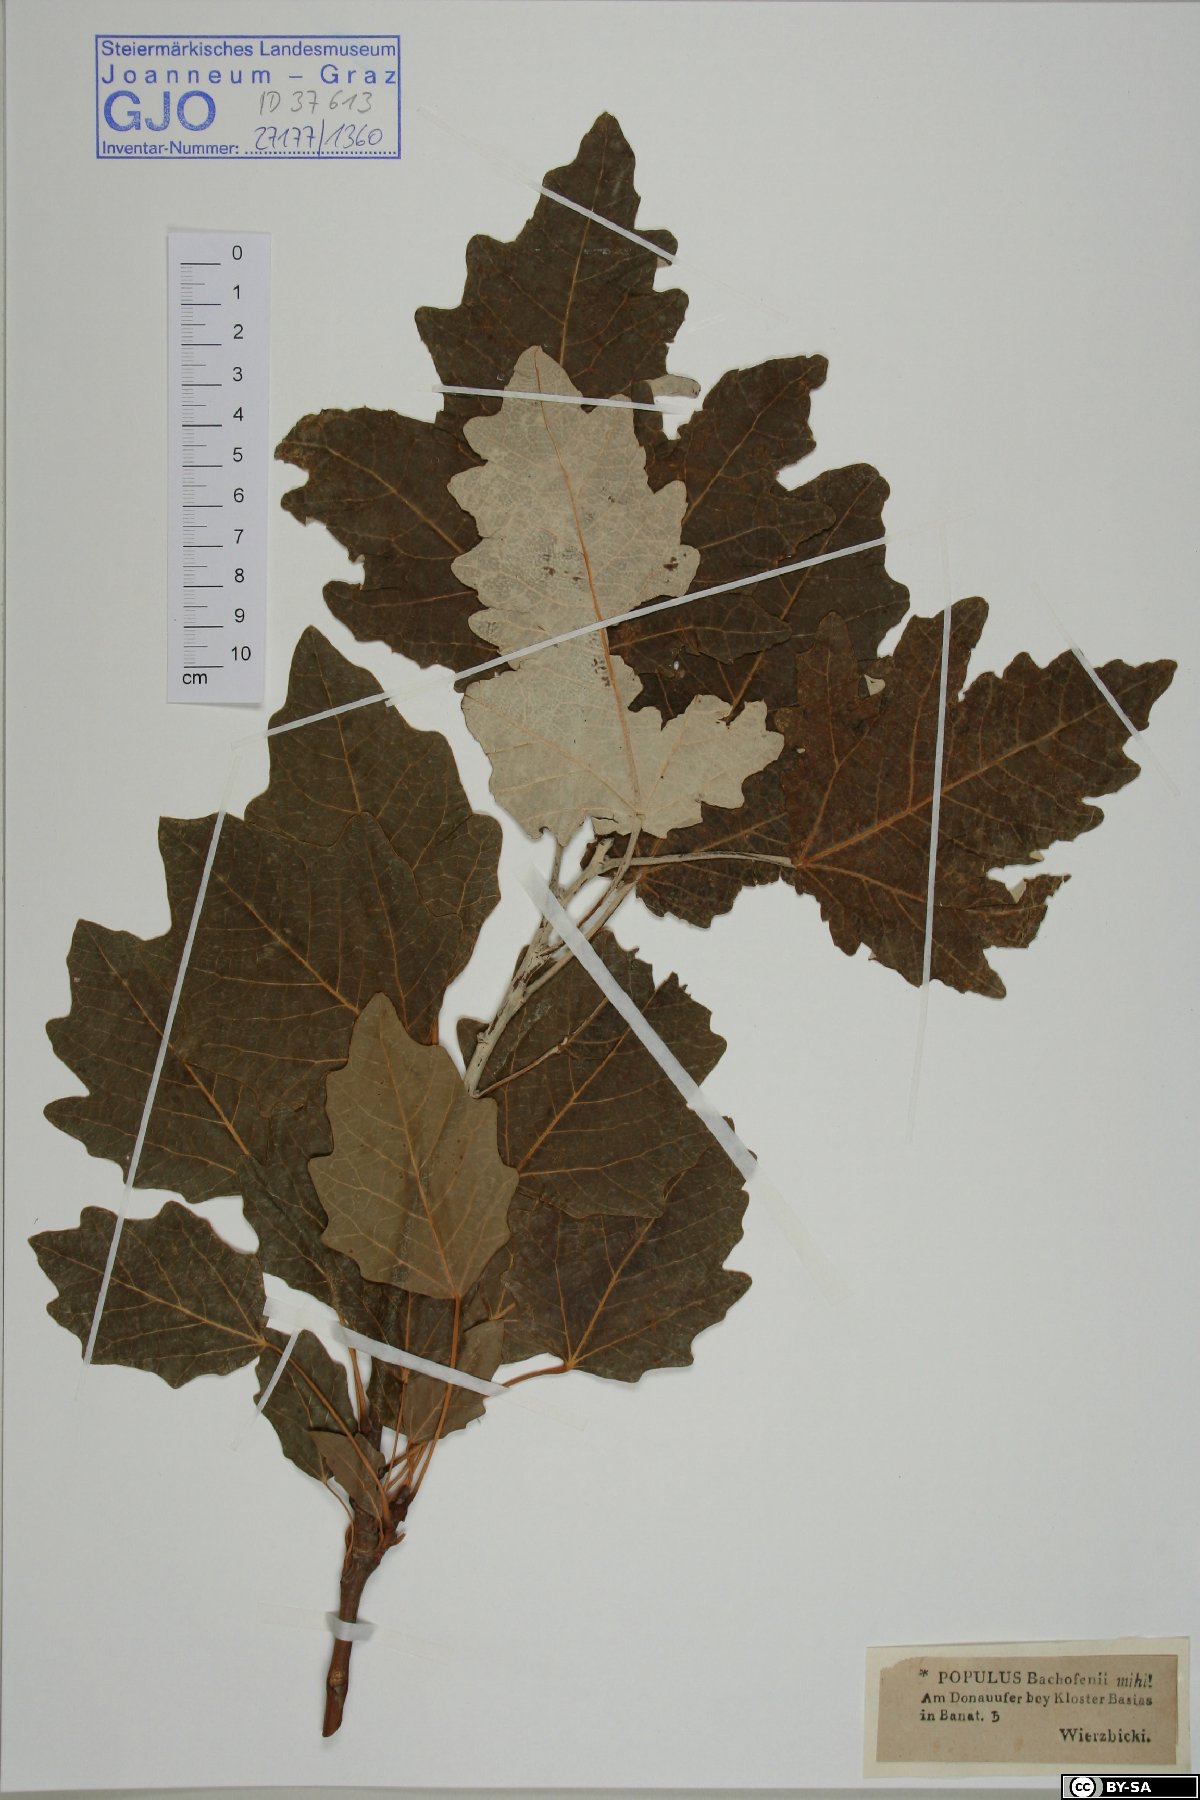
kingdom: Plantae
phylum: Tracheophyta
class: Magnoliopsida
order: Malpighiales
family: Salicaceae
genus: Populus
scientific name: Populus alba
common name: White poplar
